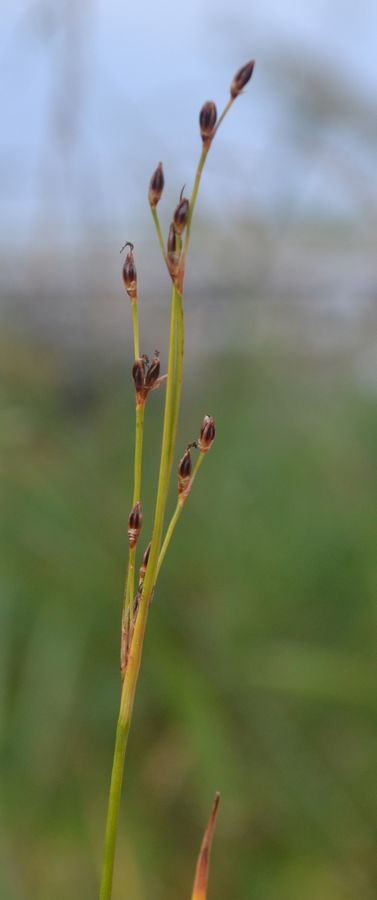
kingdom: Plantae
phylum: Tracheophyta
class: Liliopsida
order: Poales
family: Juncaceae
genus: Juncus
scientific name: Juncus bufonius
